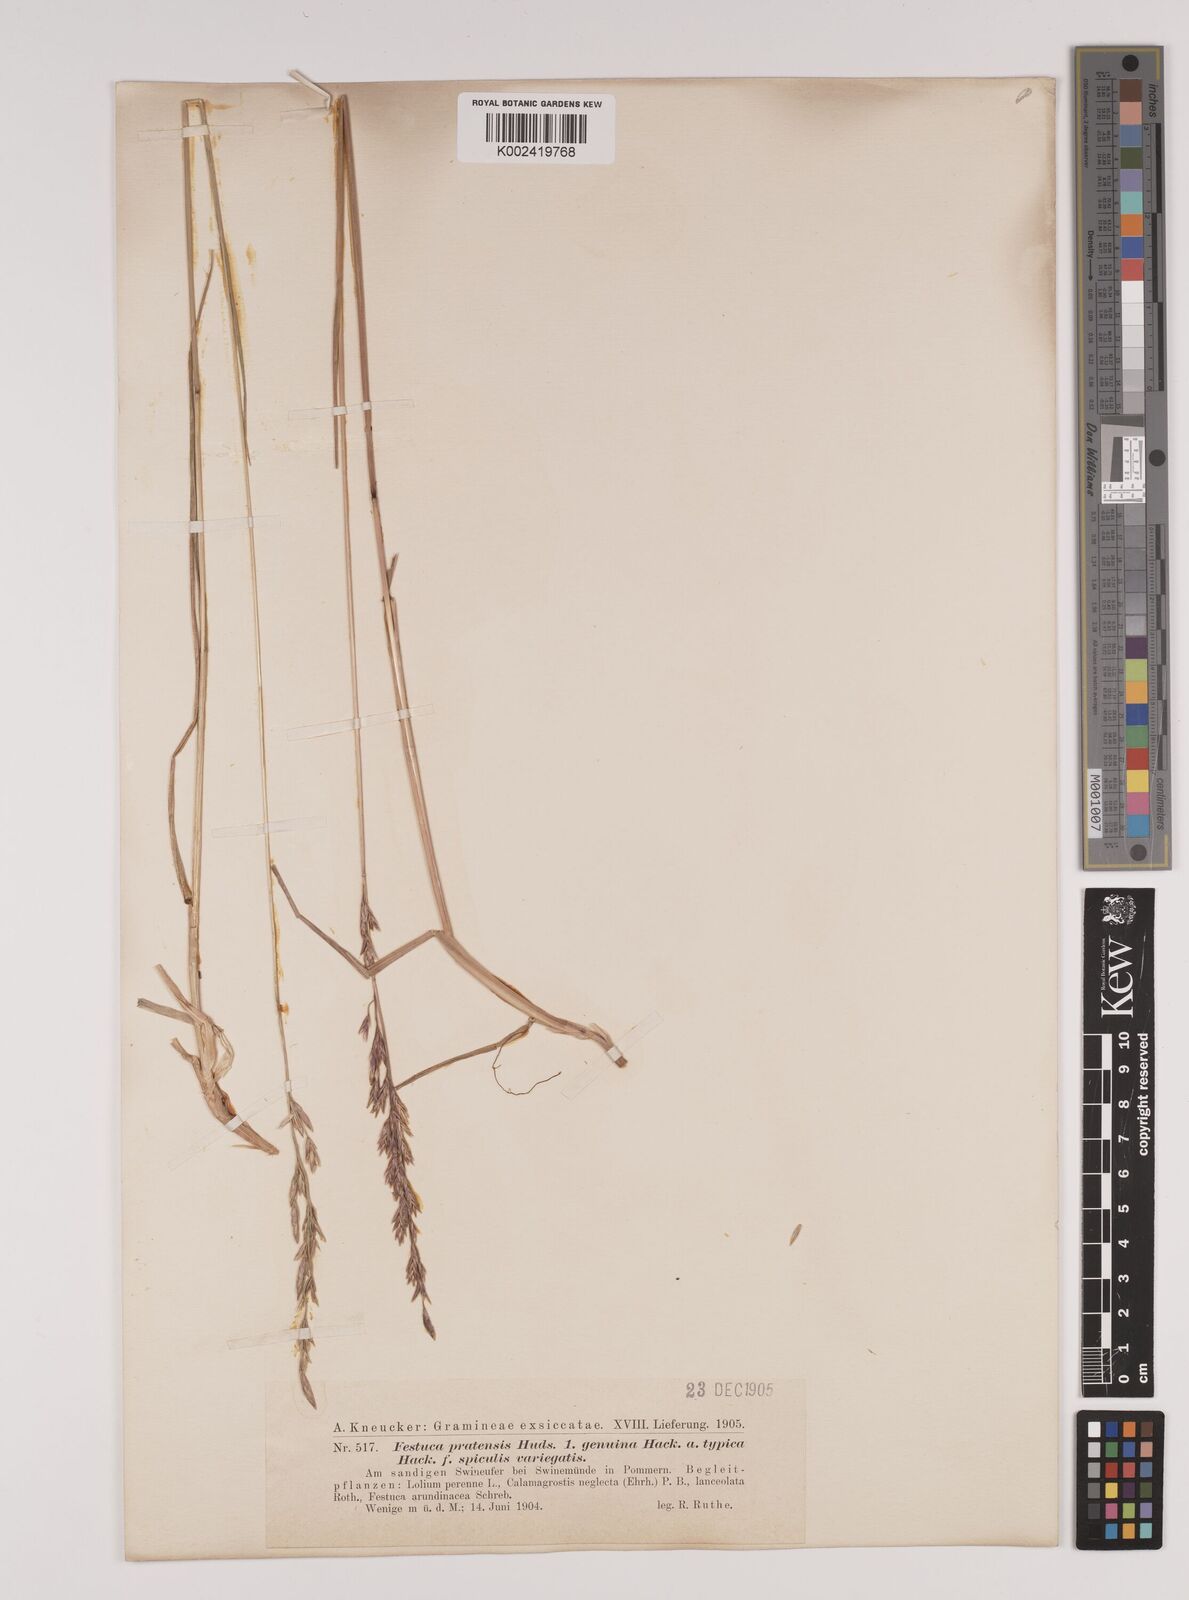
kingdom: Plantae
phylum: Tracheophyta
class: Liliopsida
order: Poales
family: Poaceae
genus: Lolium
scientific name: Lolium pratense
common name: Dover grass
